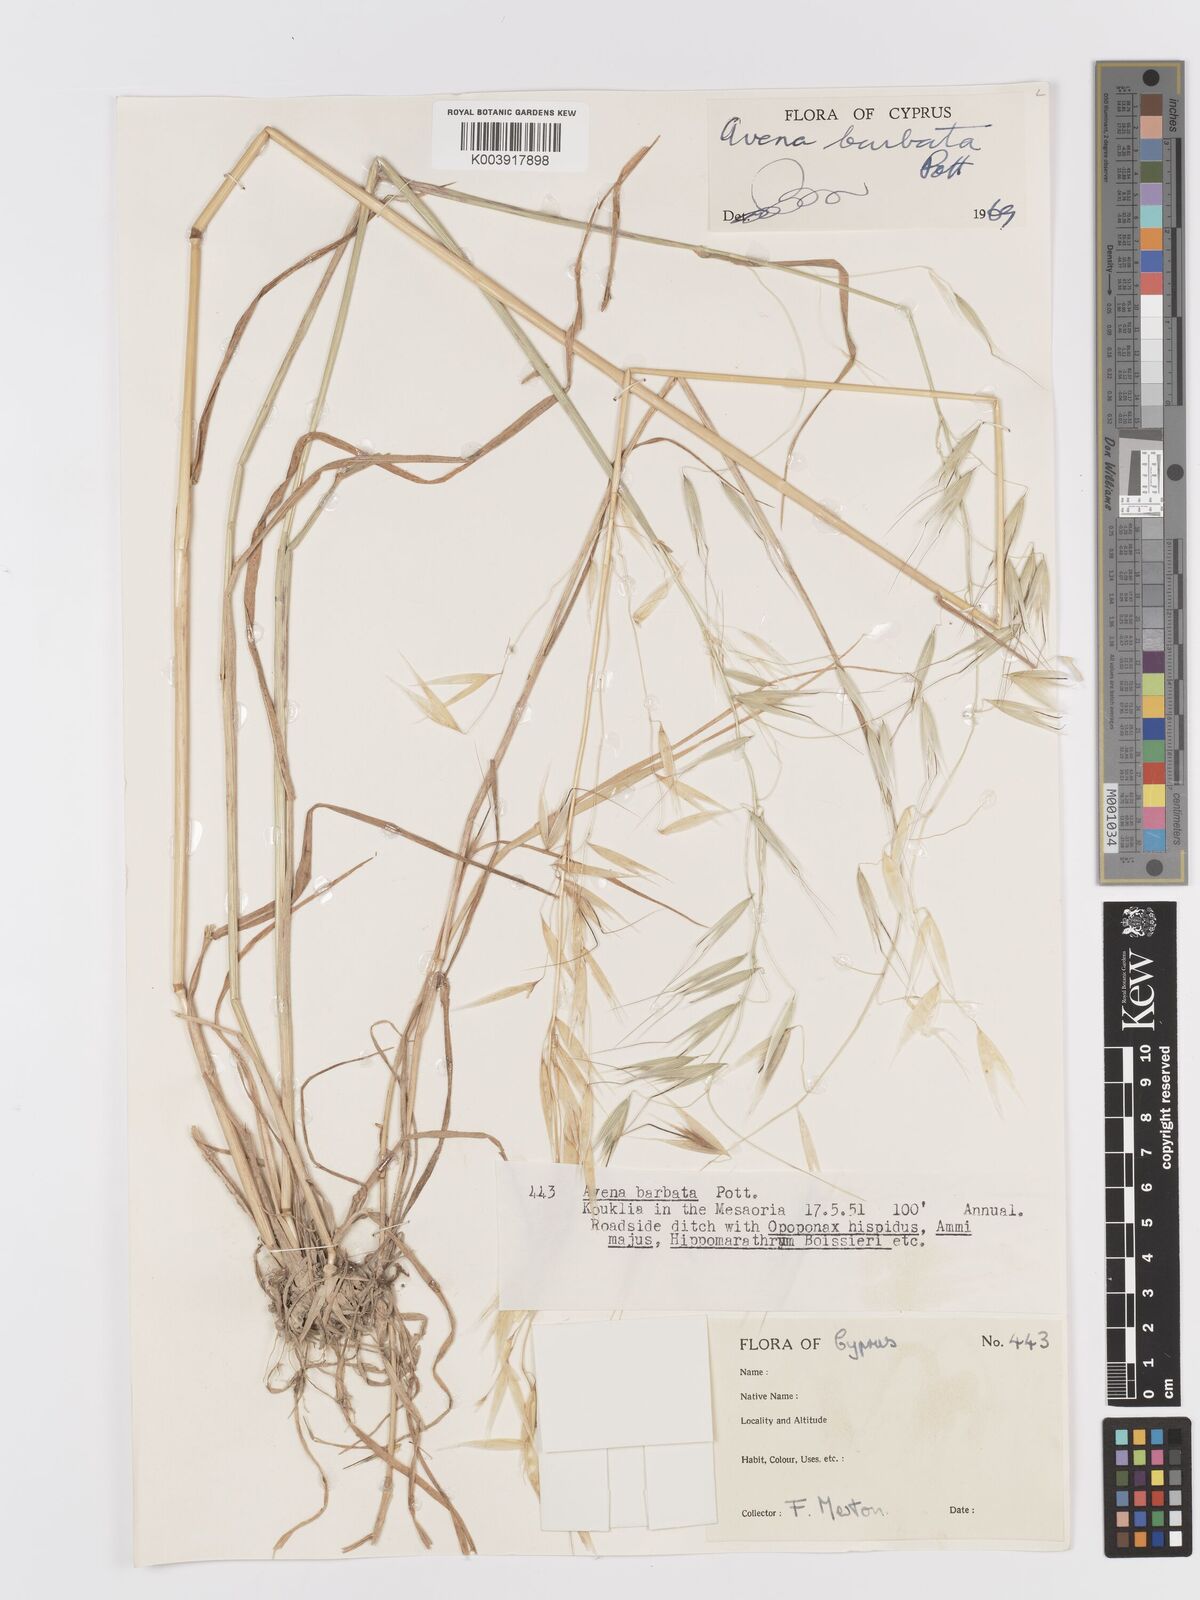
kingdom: Plantae
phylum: Tracheophyta
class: Liliopsida
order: Poales
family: Poaceae
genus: Avena
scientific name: Avena
